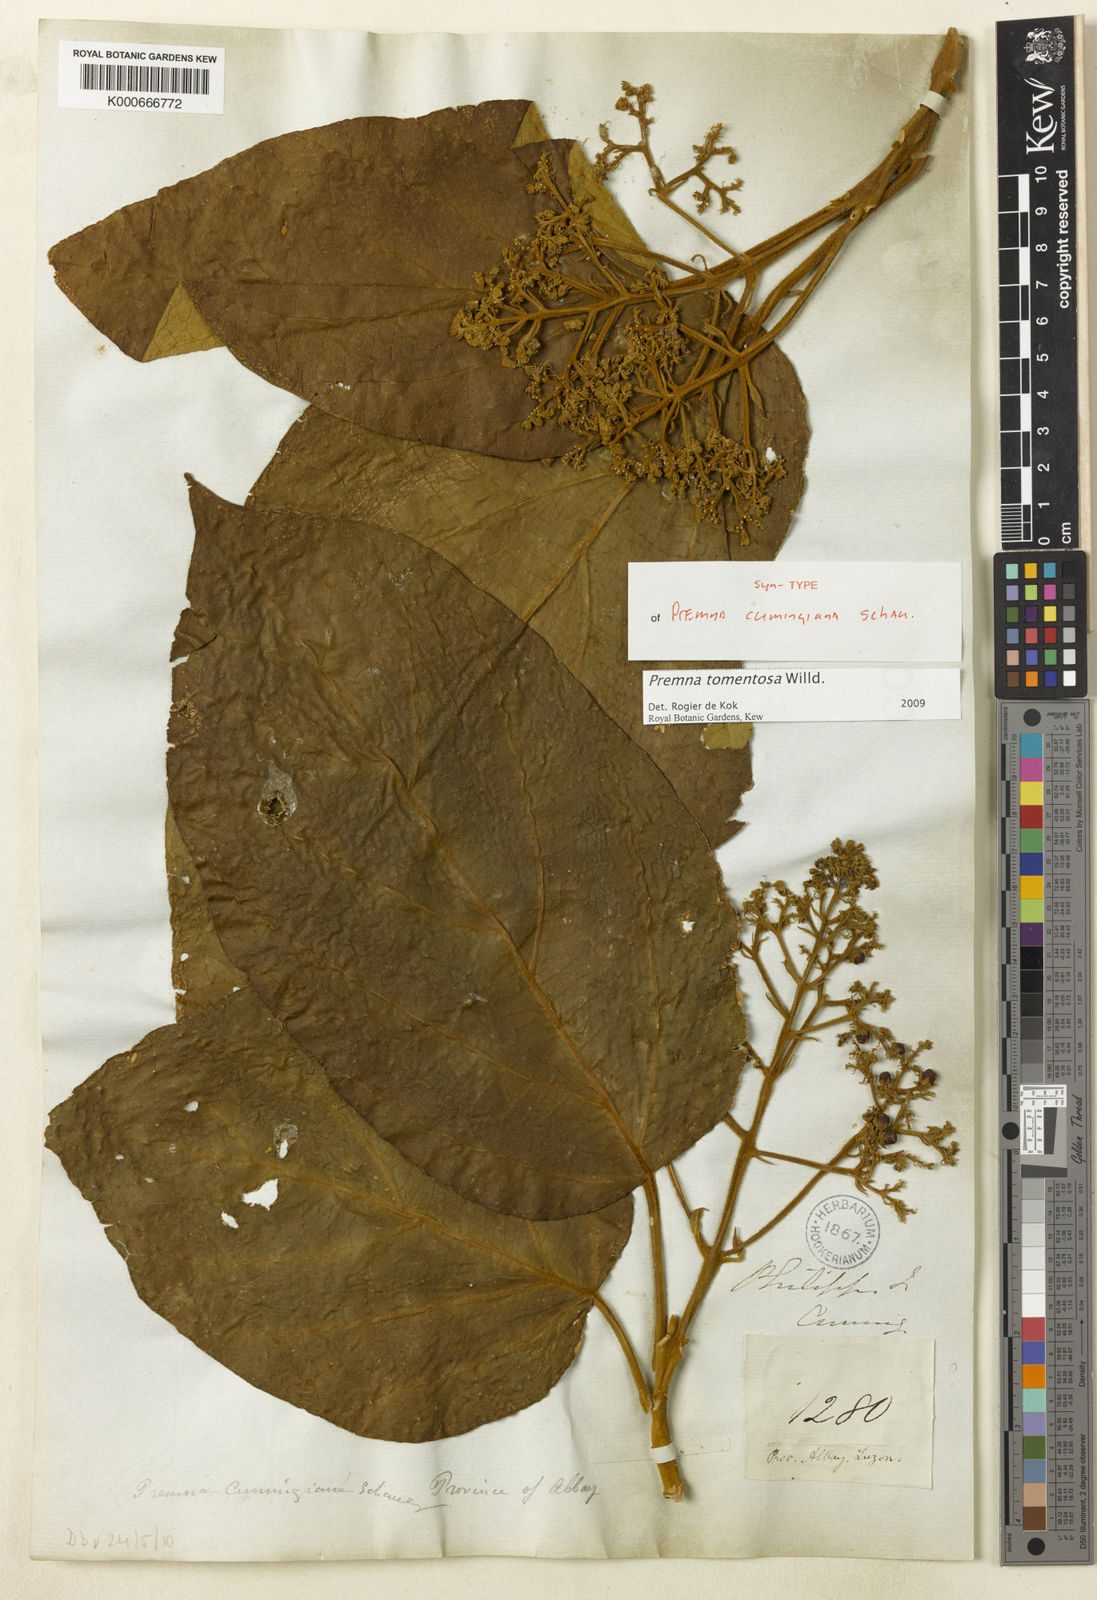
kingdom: Plantae
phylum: Tracheophyta
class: Magnoliopsida
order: Lamiales
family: Lamiaceae
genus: Premna
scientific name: Premna tomentosa
